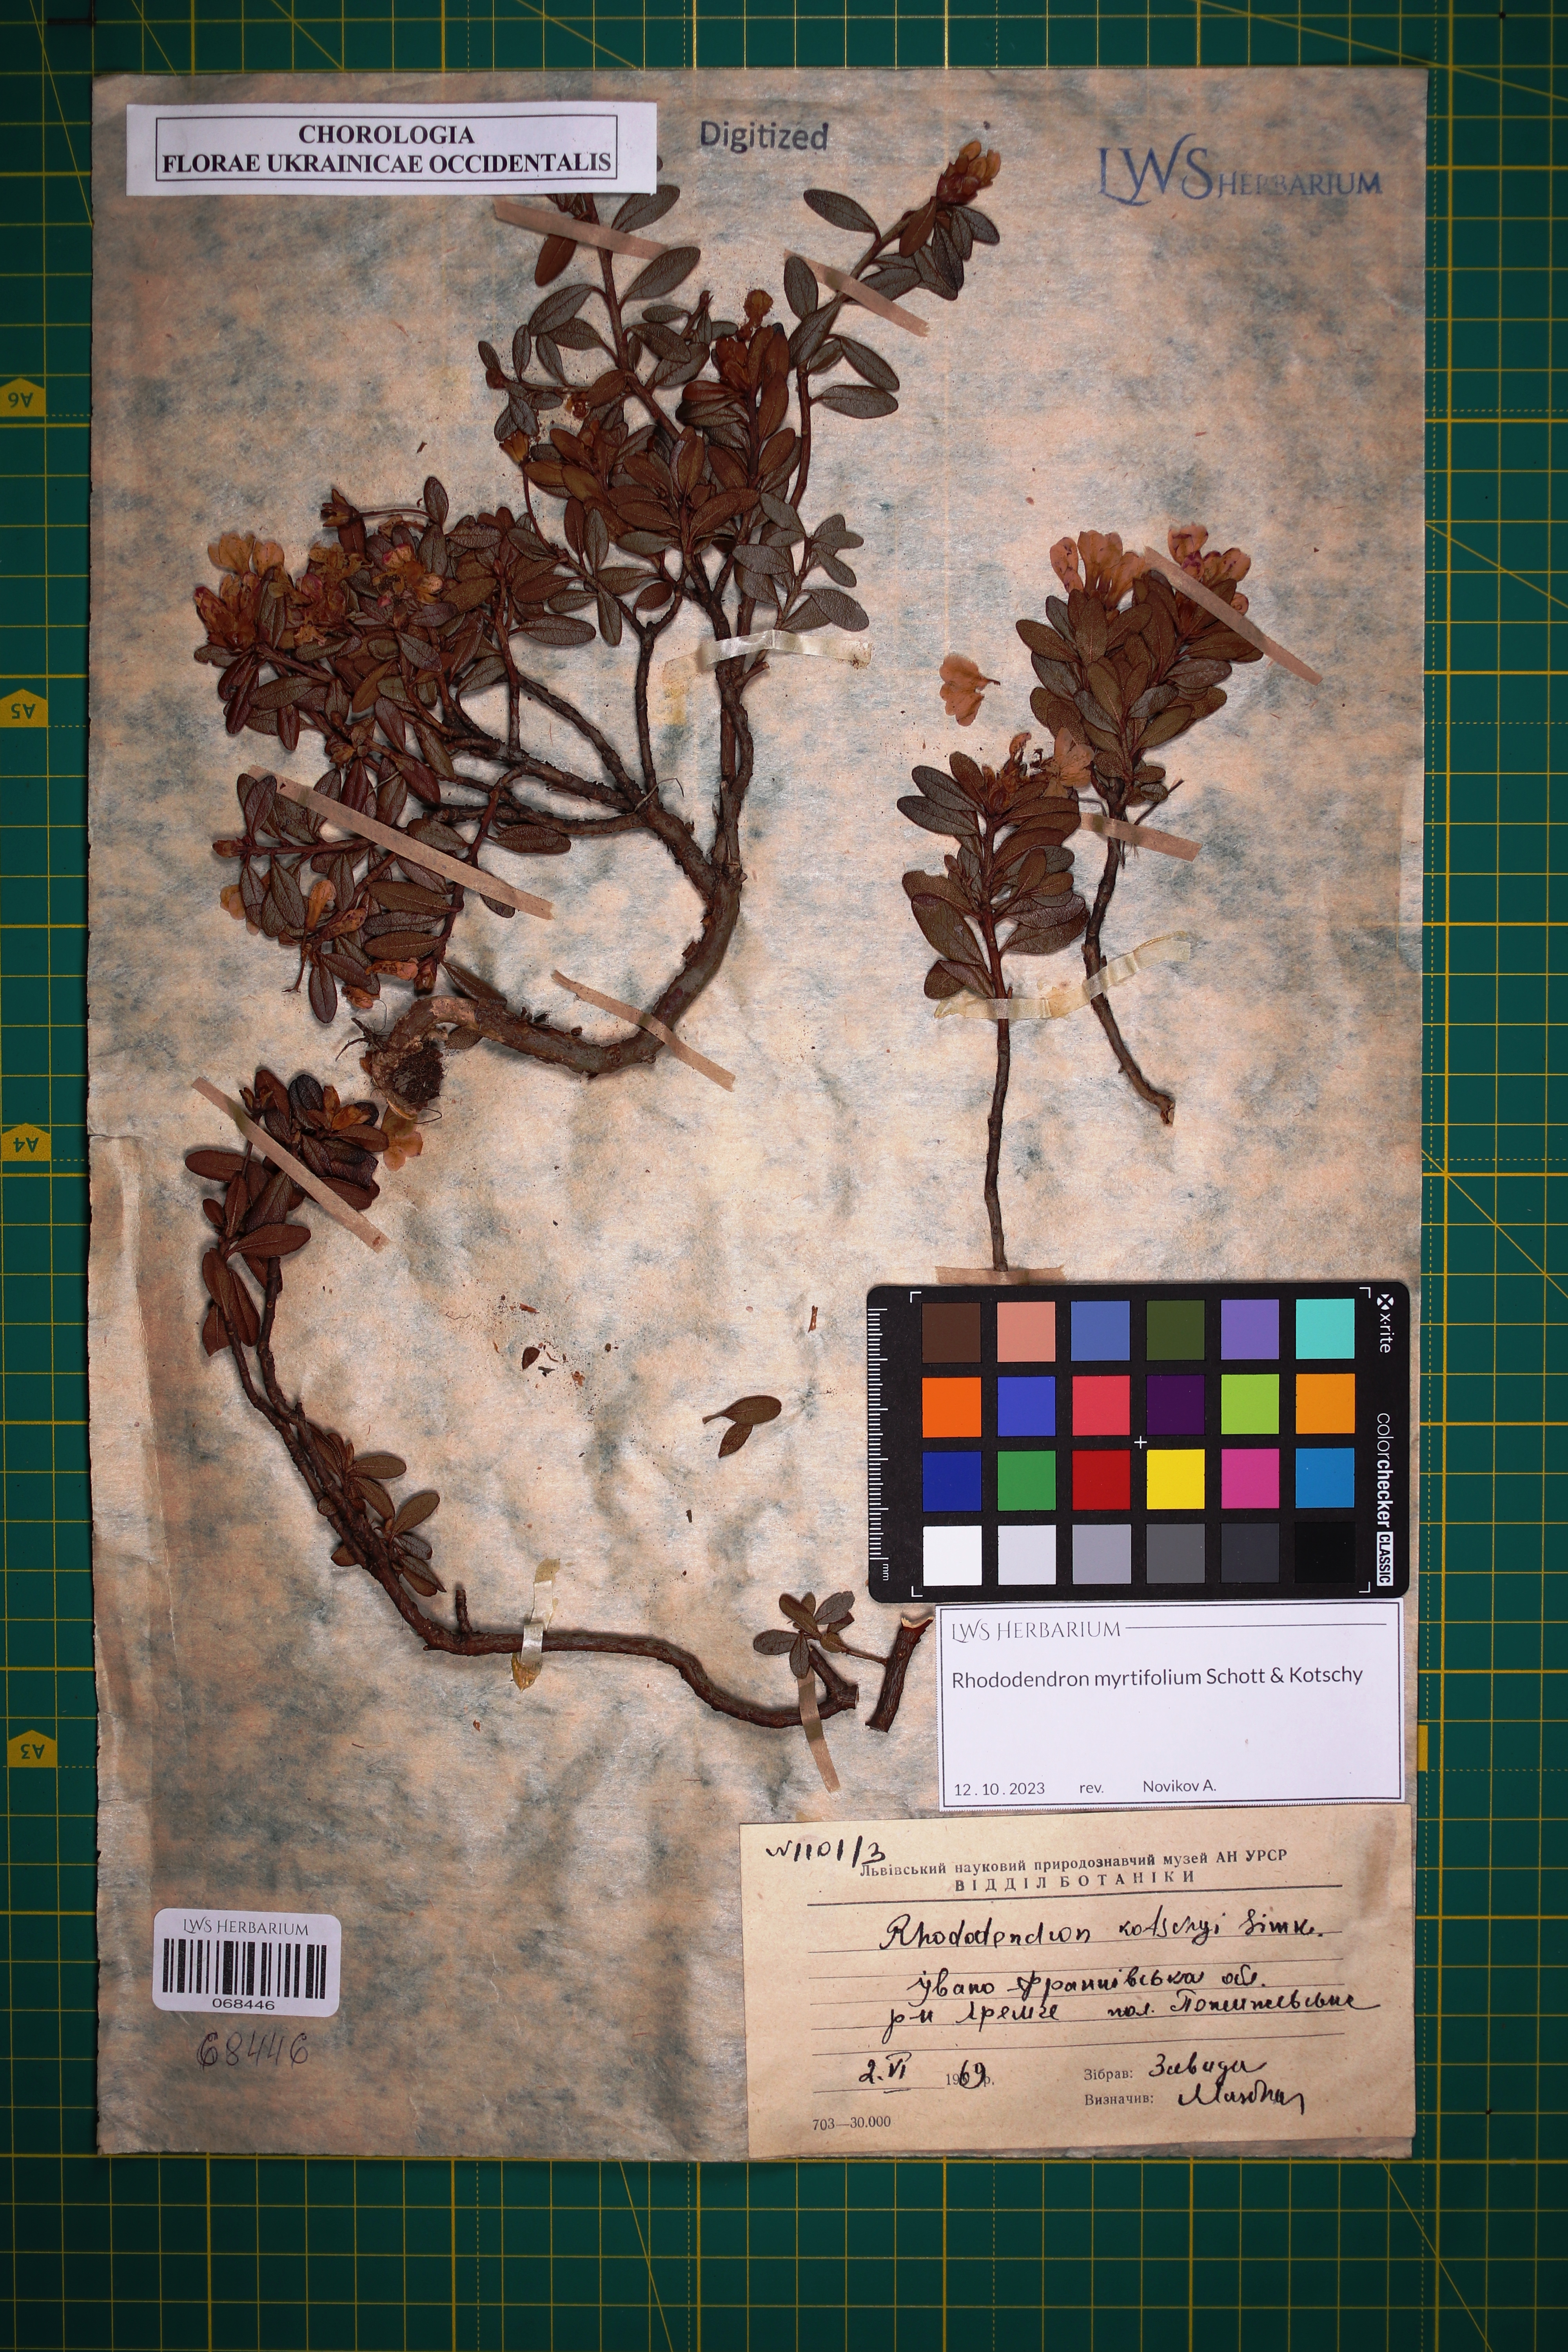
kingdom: Plantae
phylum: Tracheophyta
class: Magnoliopsida
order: Ericales
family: Ericaceae
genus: Rhododendron
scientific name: Rhododendron kotschyi
